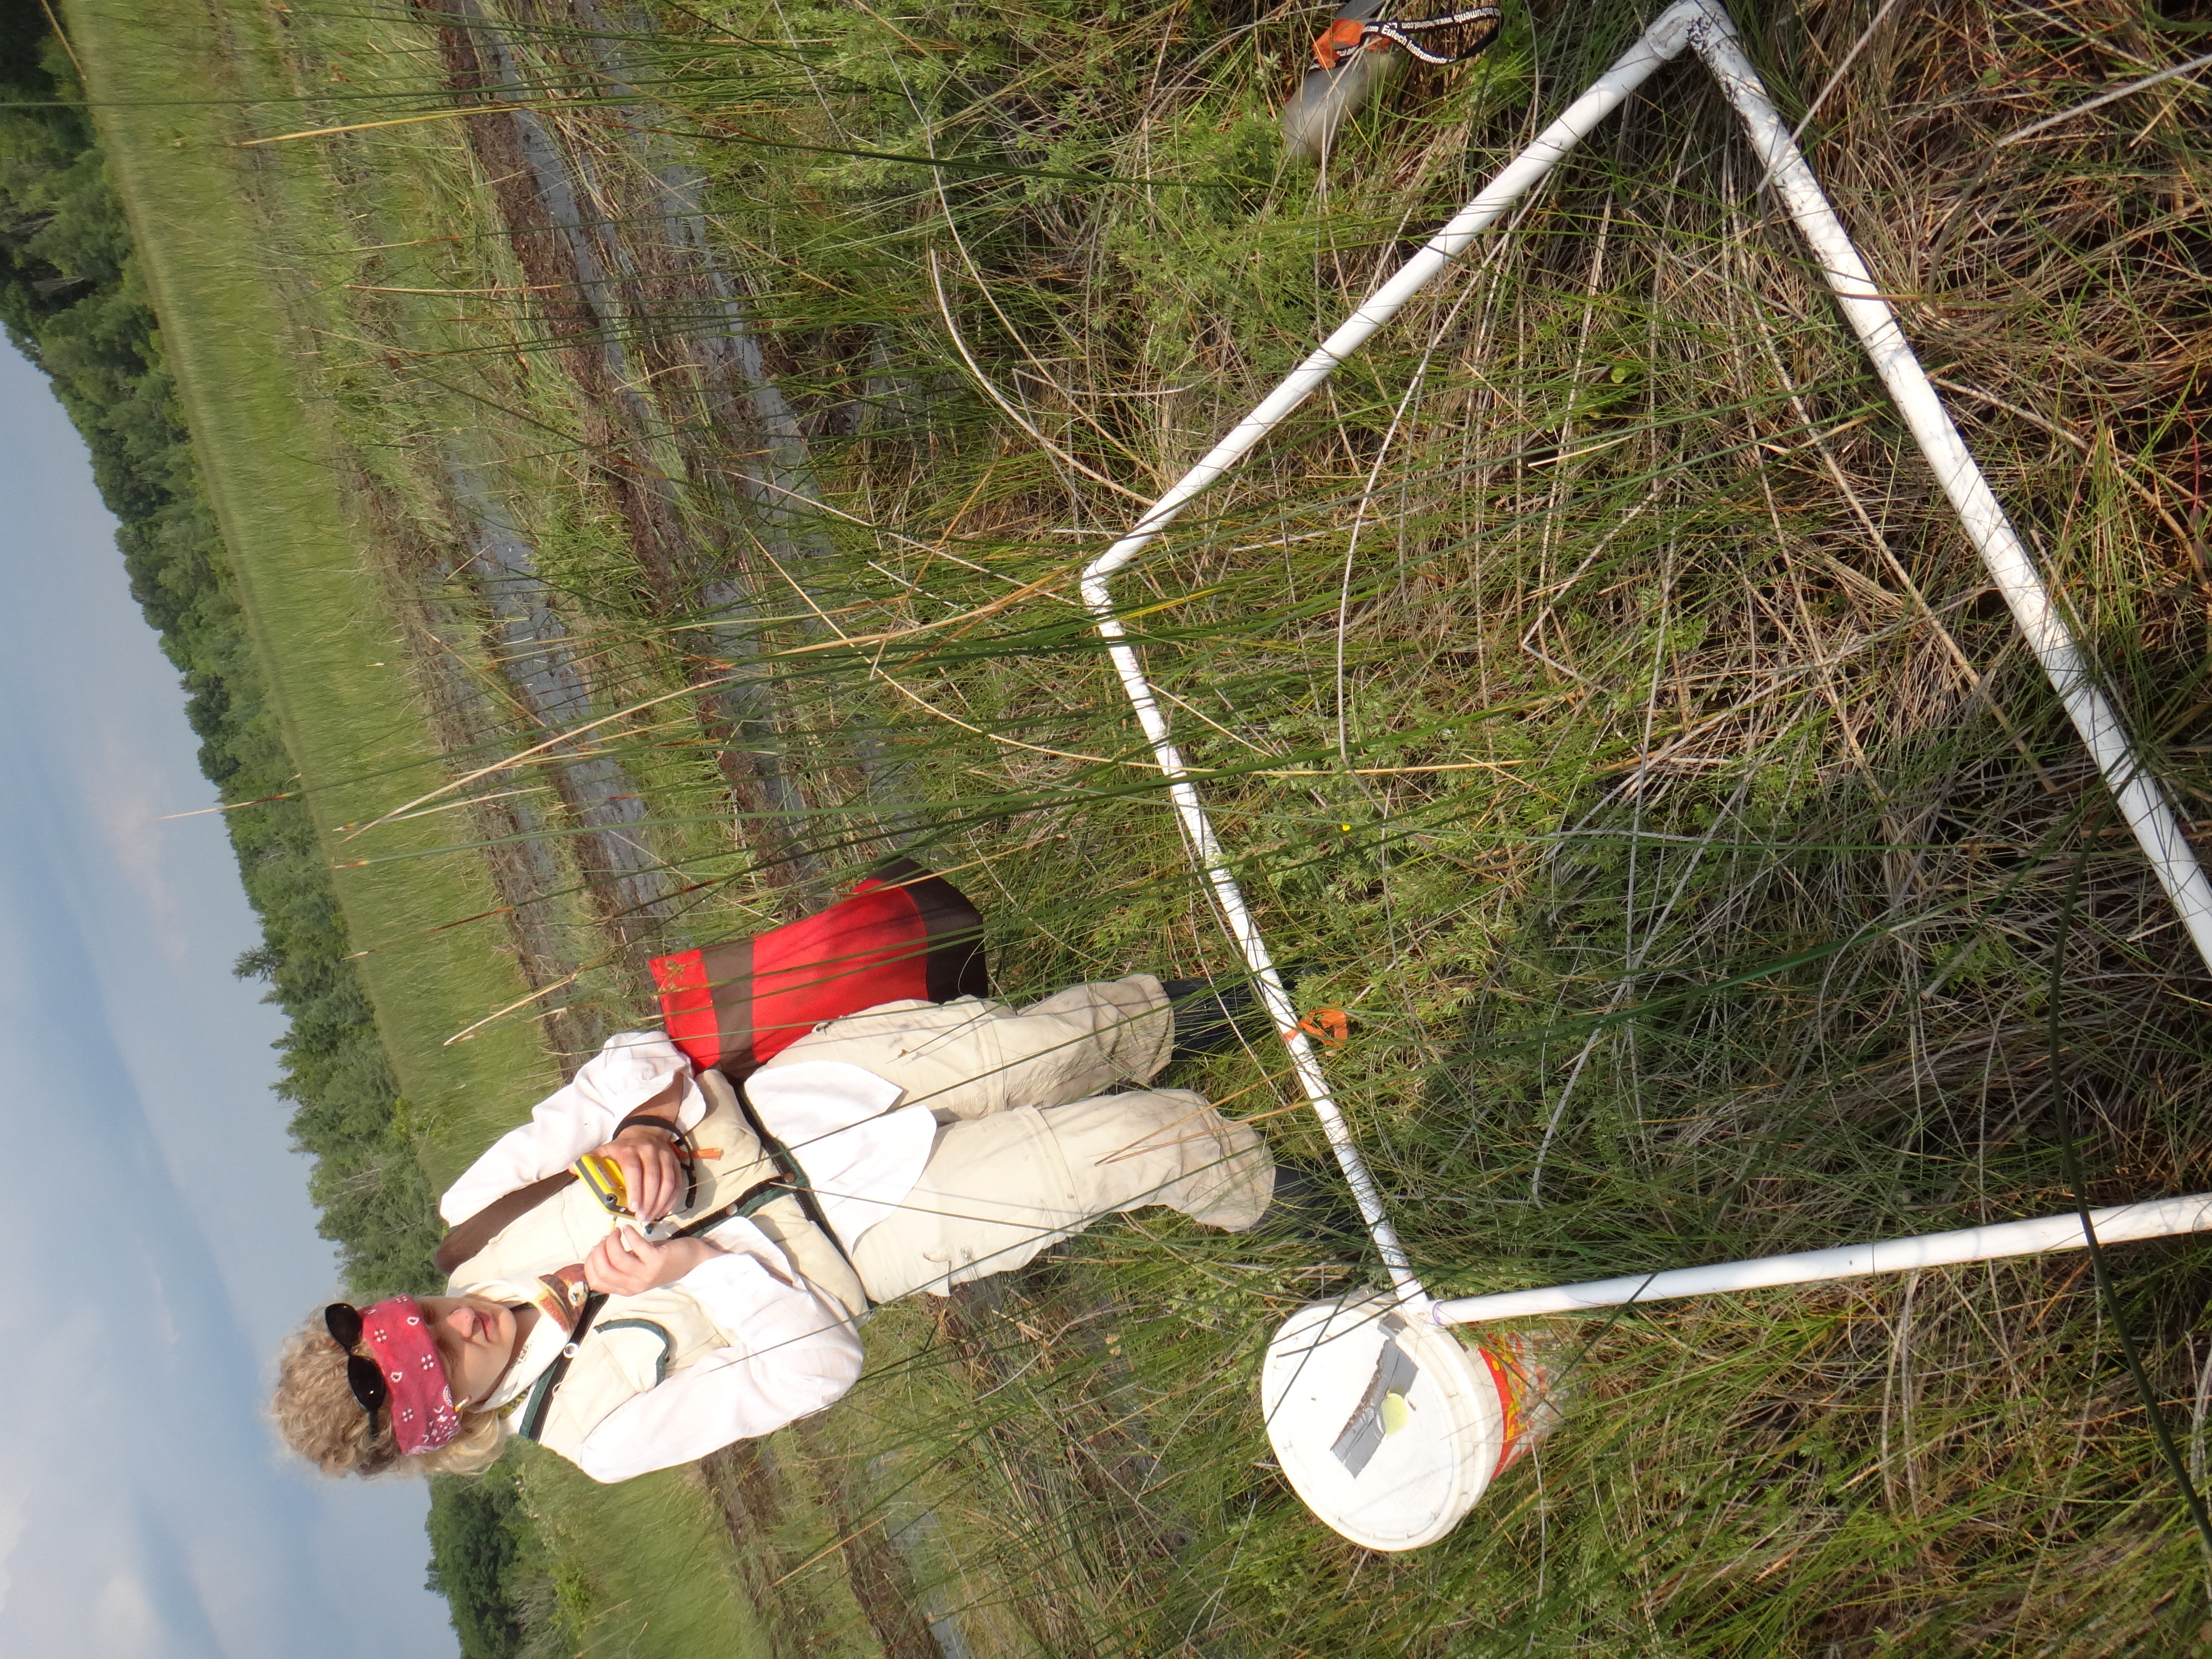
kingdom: Plantae
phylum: Tracheophyta
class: Liliopsida
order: Poales
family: Cyperaceae
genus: Eleocharis
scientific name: Eleocharis elliptica
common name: Capitate spikerush
